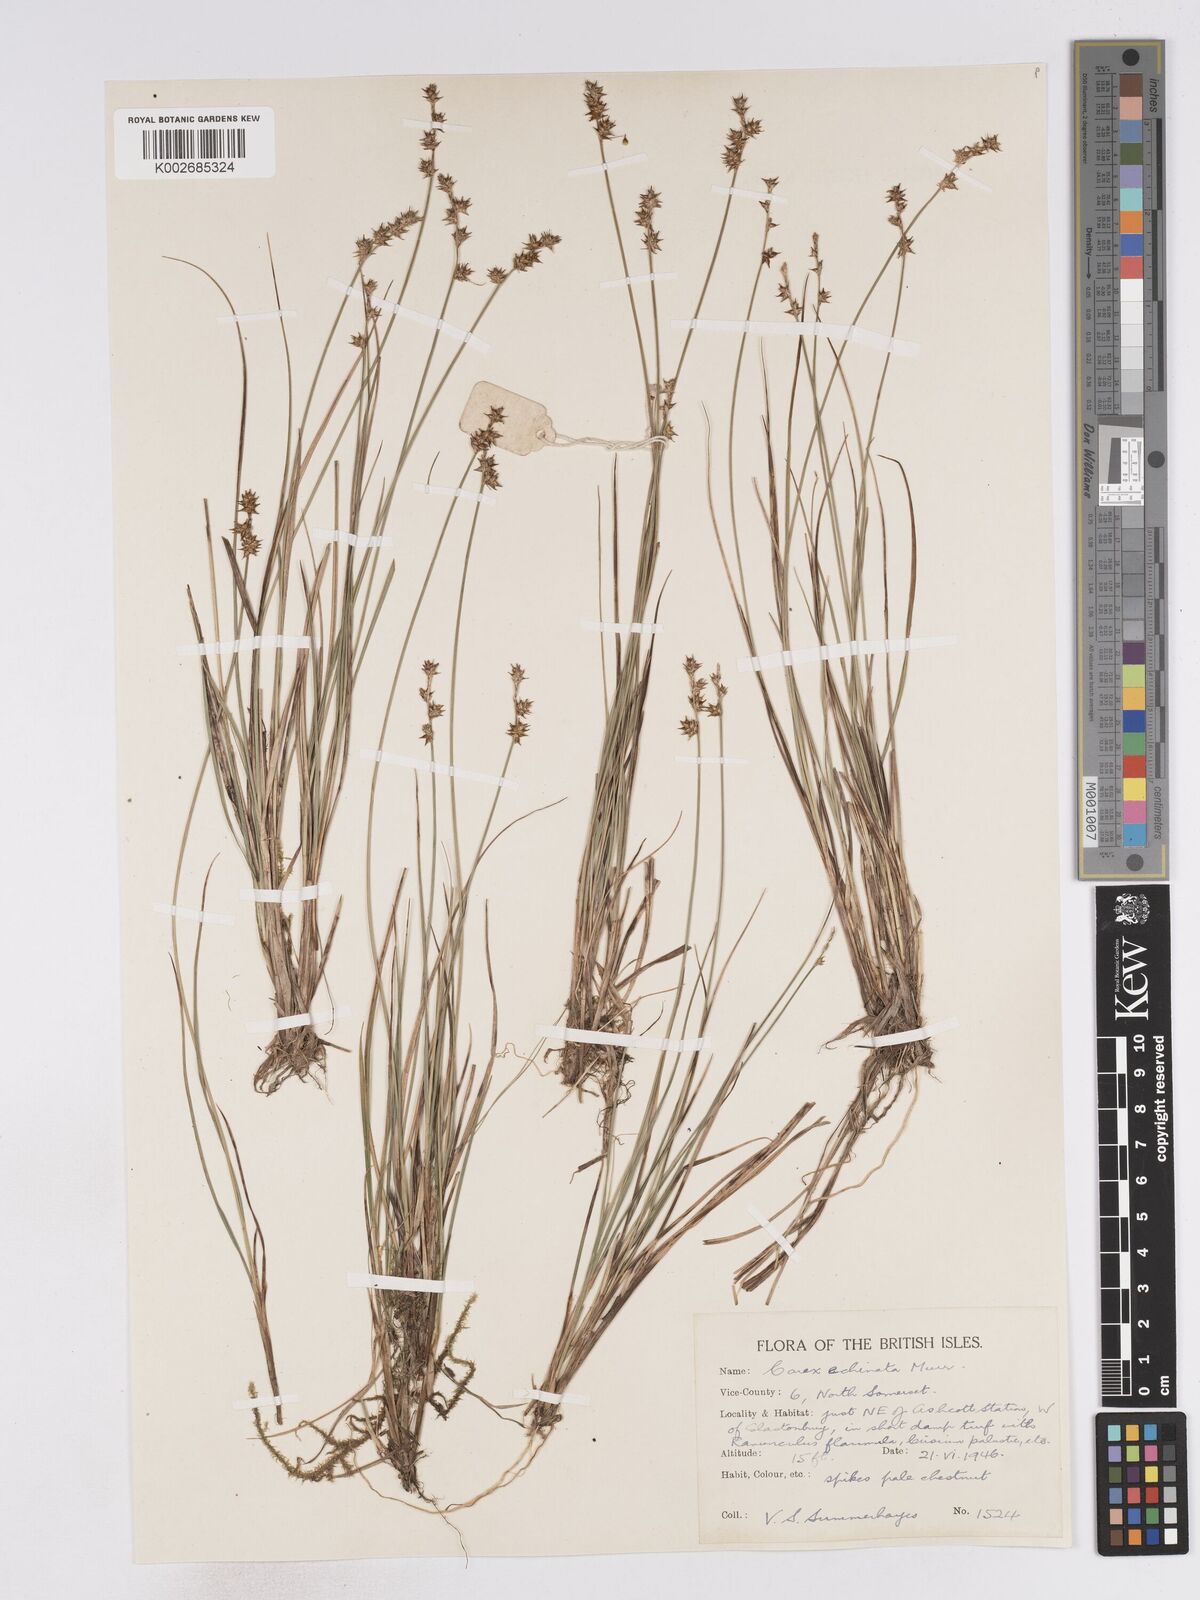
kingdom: Plantae
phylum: Tracheophyta
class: Liliopsida
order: Poales
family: Cyperaceae
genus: Carex
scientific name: Carex echinata
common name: Star sedge
